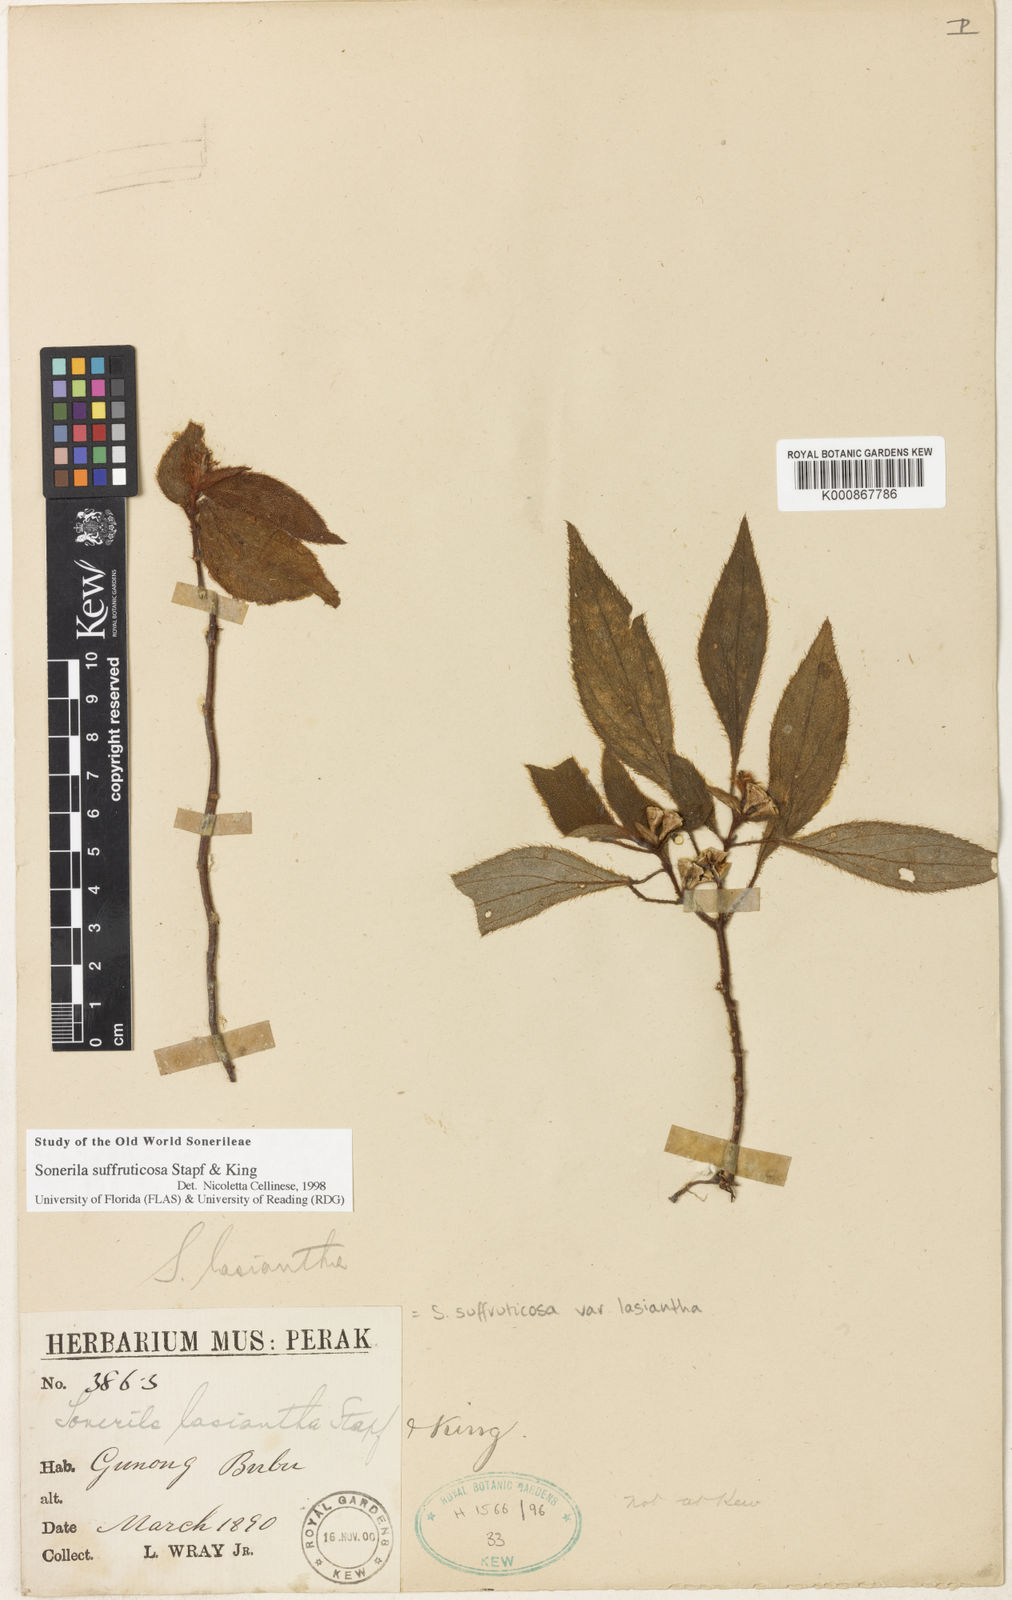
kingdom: Plantae
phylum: Tracheophyta
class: Magnoliopsida
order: Myrtales
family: Melastomataceae
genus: Sonerila
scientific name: Sonerila suffruticosa
